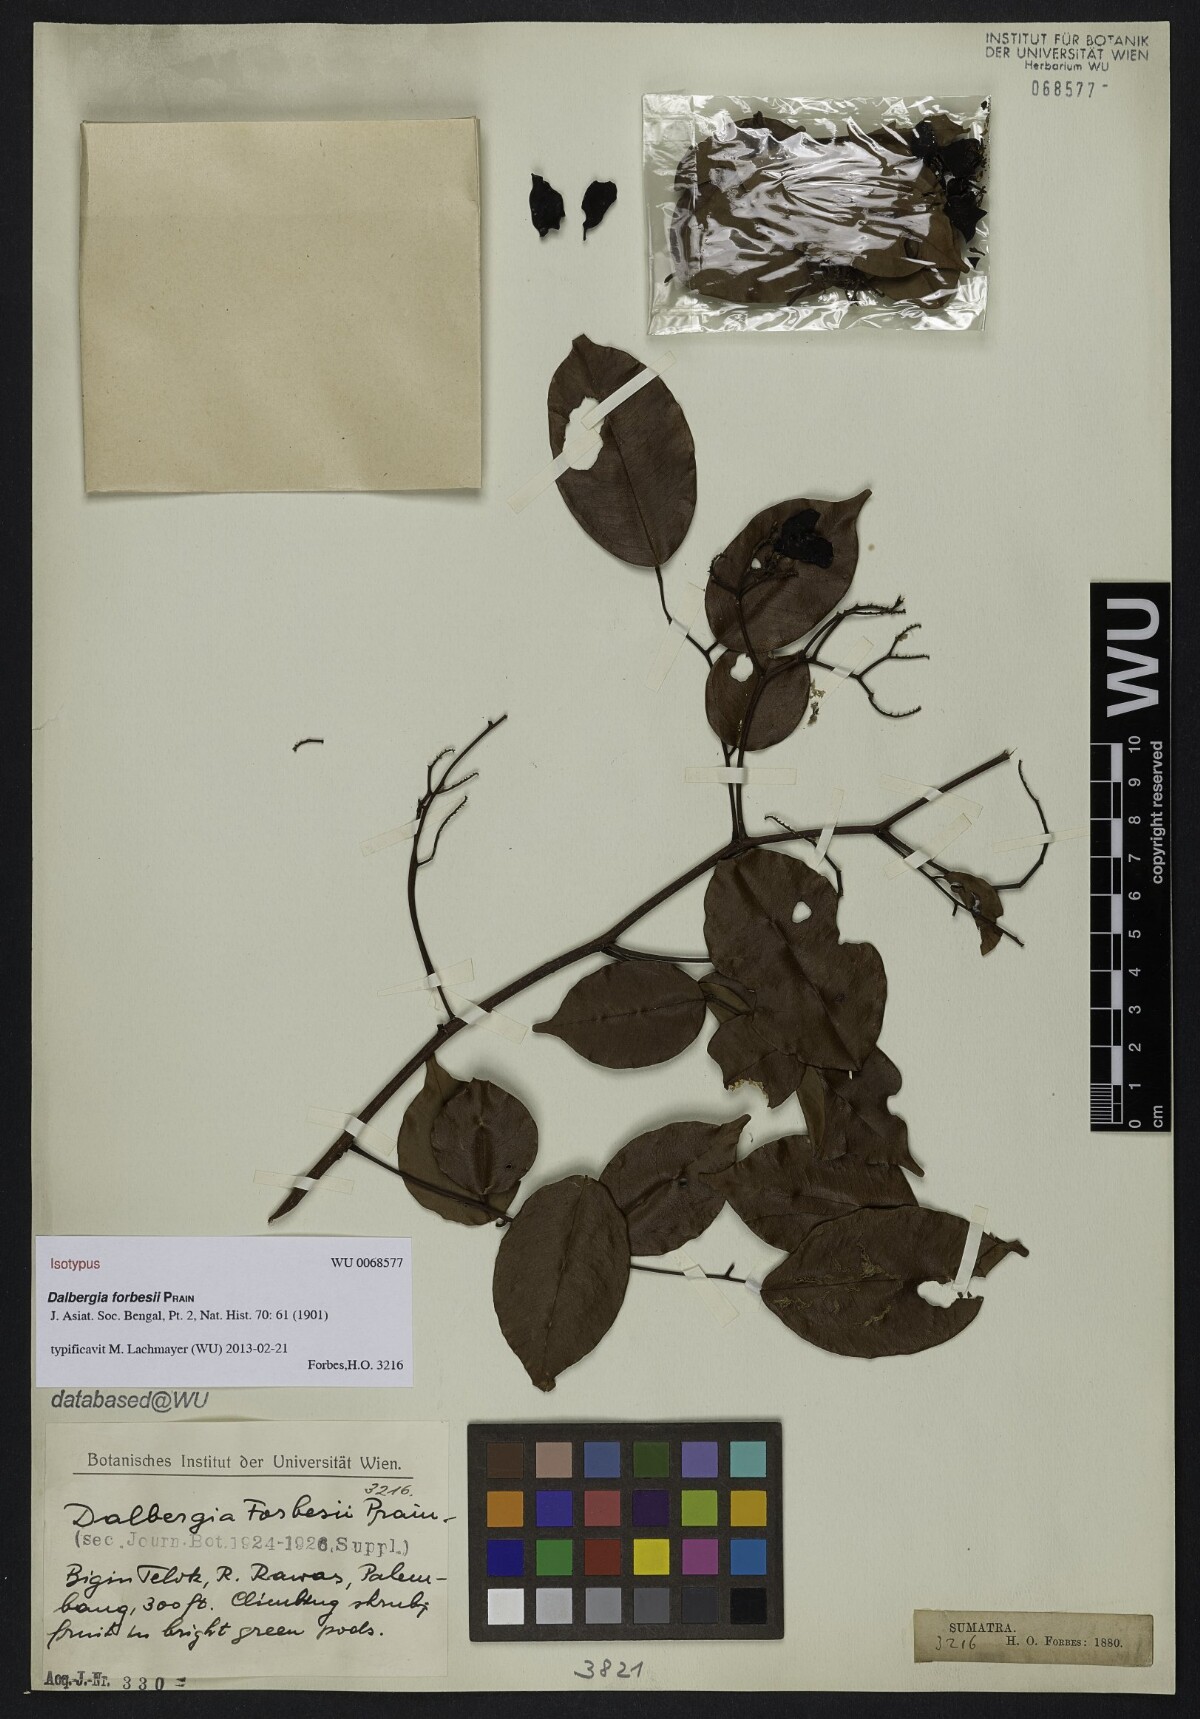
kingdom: Plantae
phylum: Tracheophyta
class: Magnoliopsida
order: Fabales
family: Fabaceae
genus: Dalbergia
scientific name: Dalbergia parviflora
